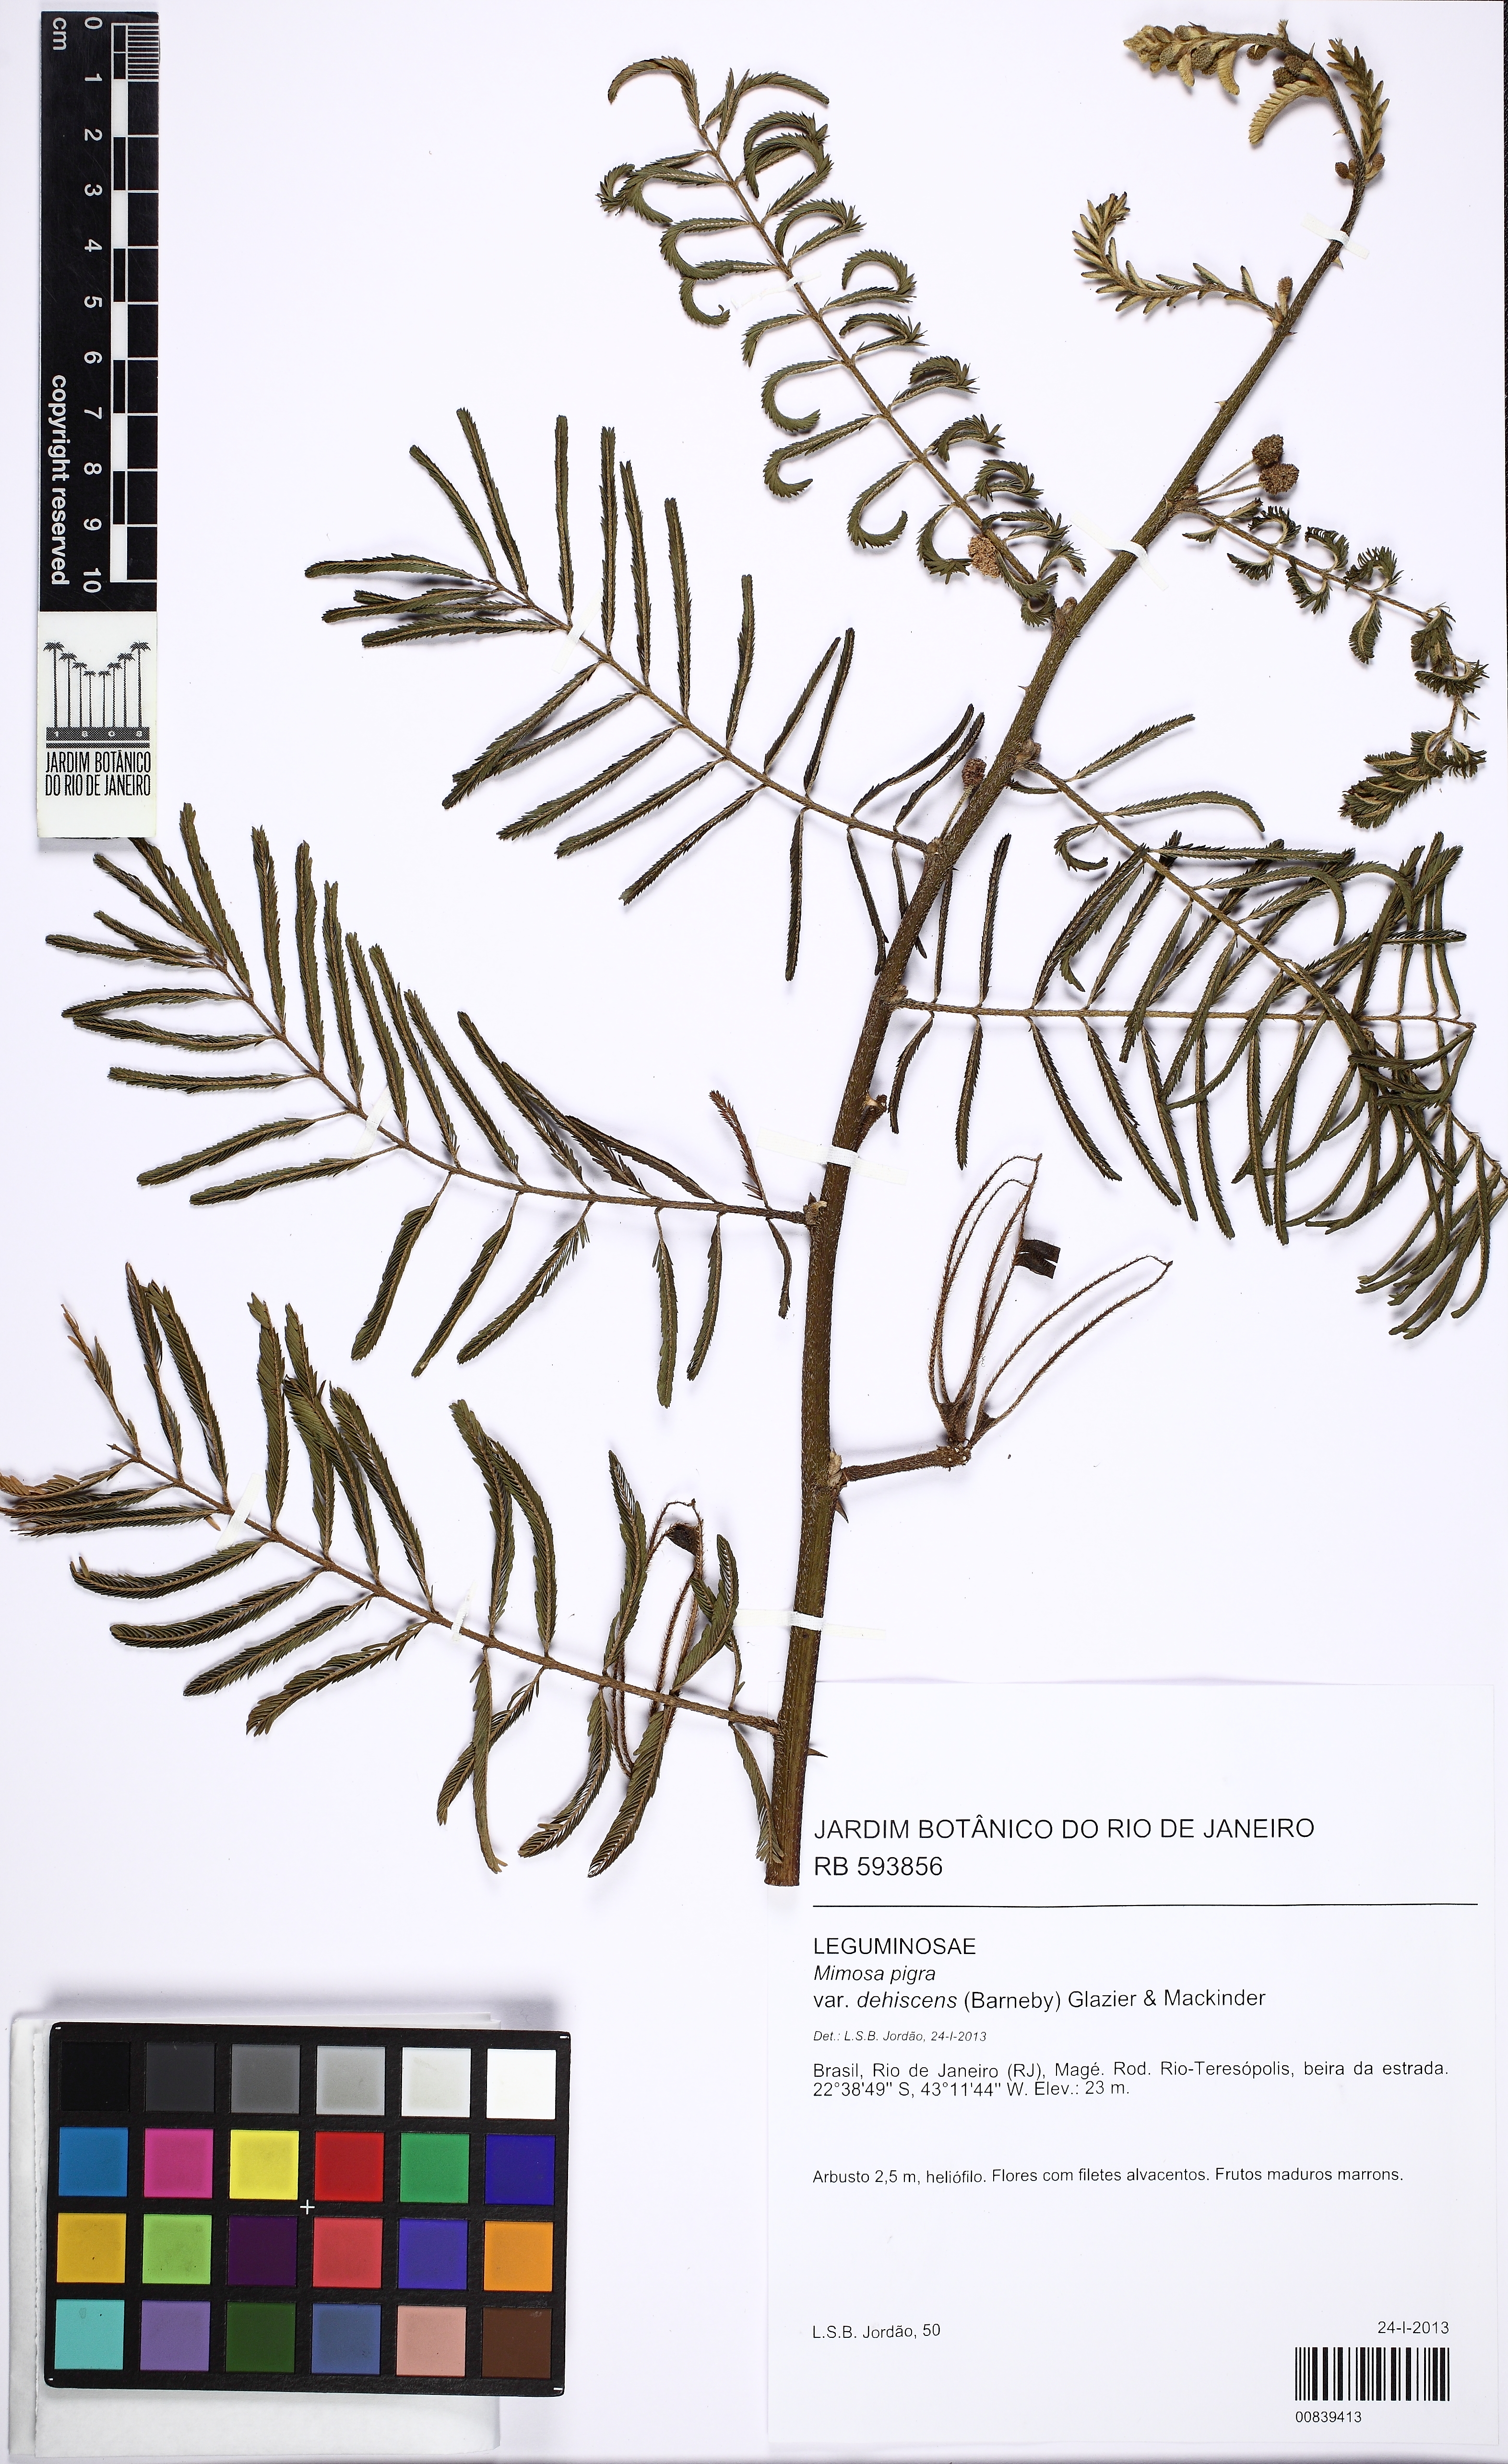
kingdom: Plantae
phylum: Tracheophyta
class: Magnoliopsida
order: Fabales
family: Fabaceae
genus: Mimosa
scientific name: Mimosa pigra
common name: Black mimosa
